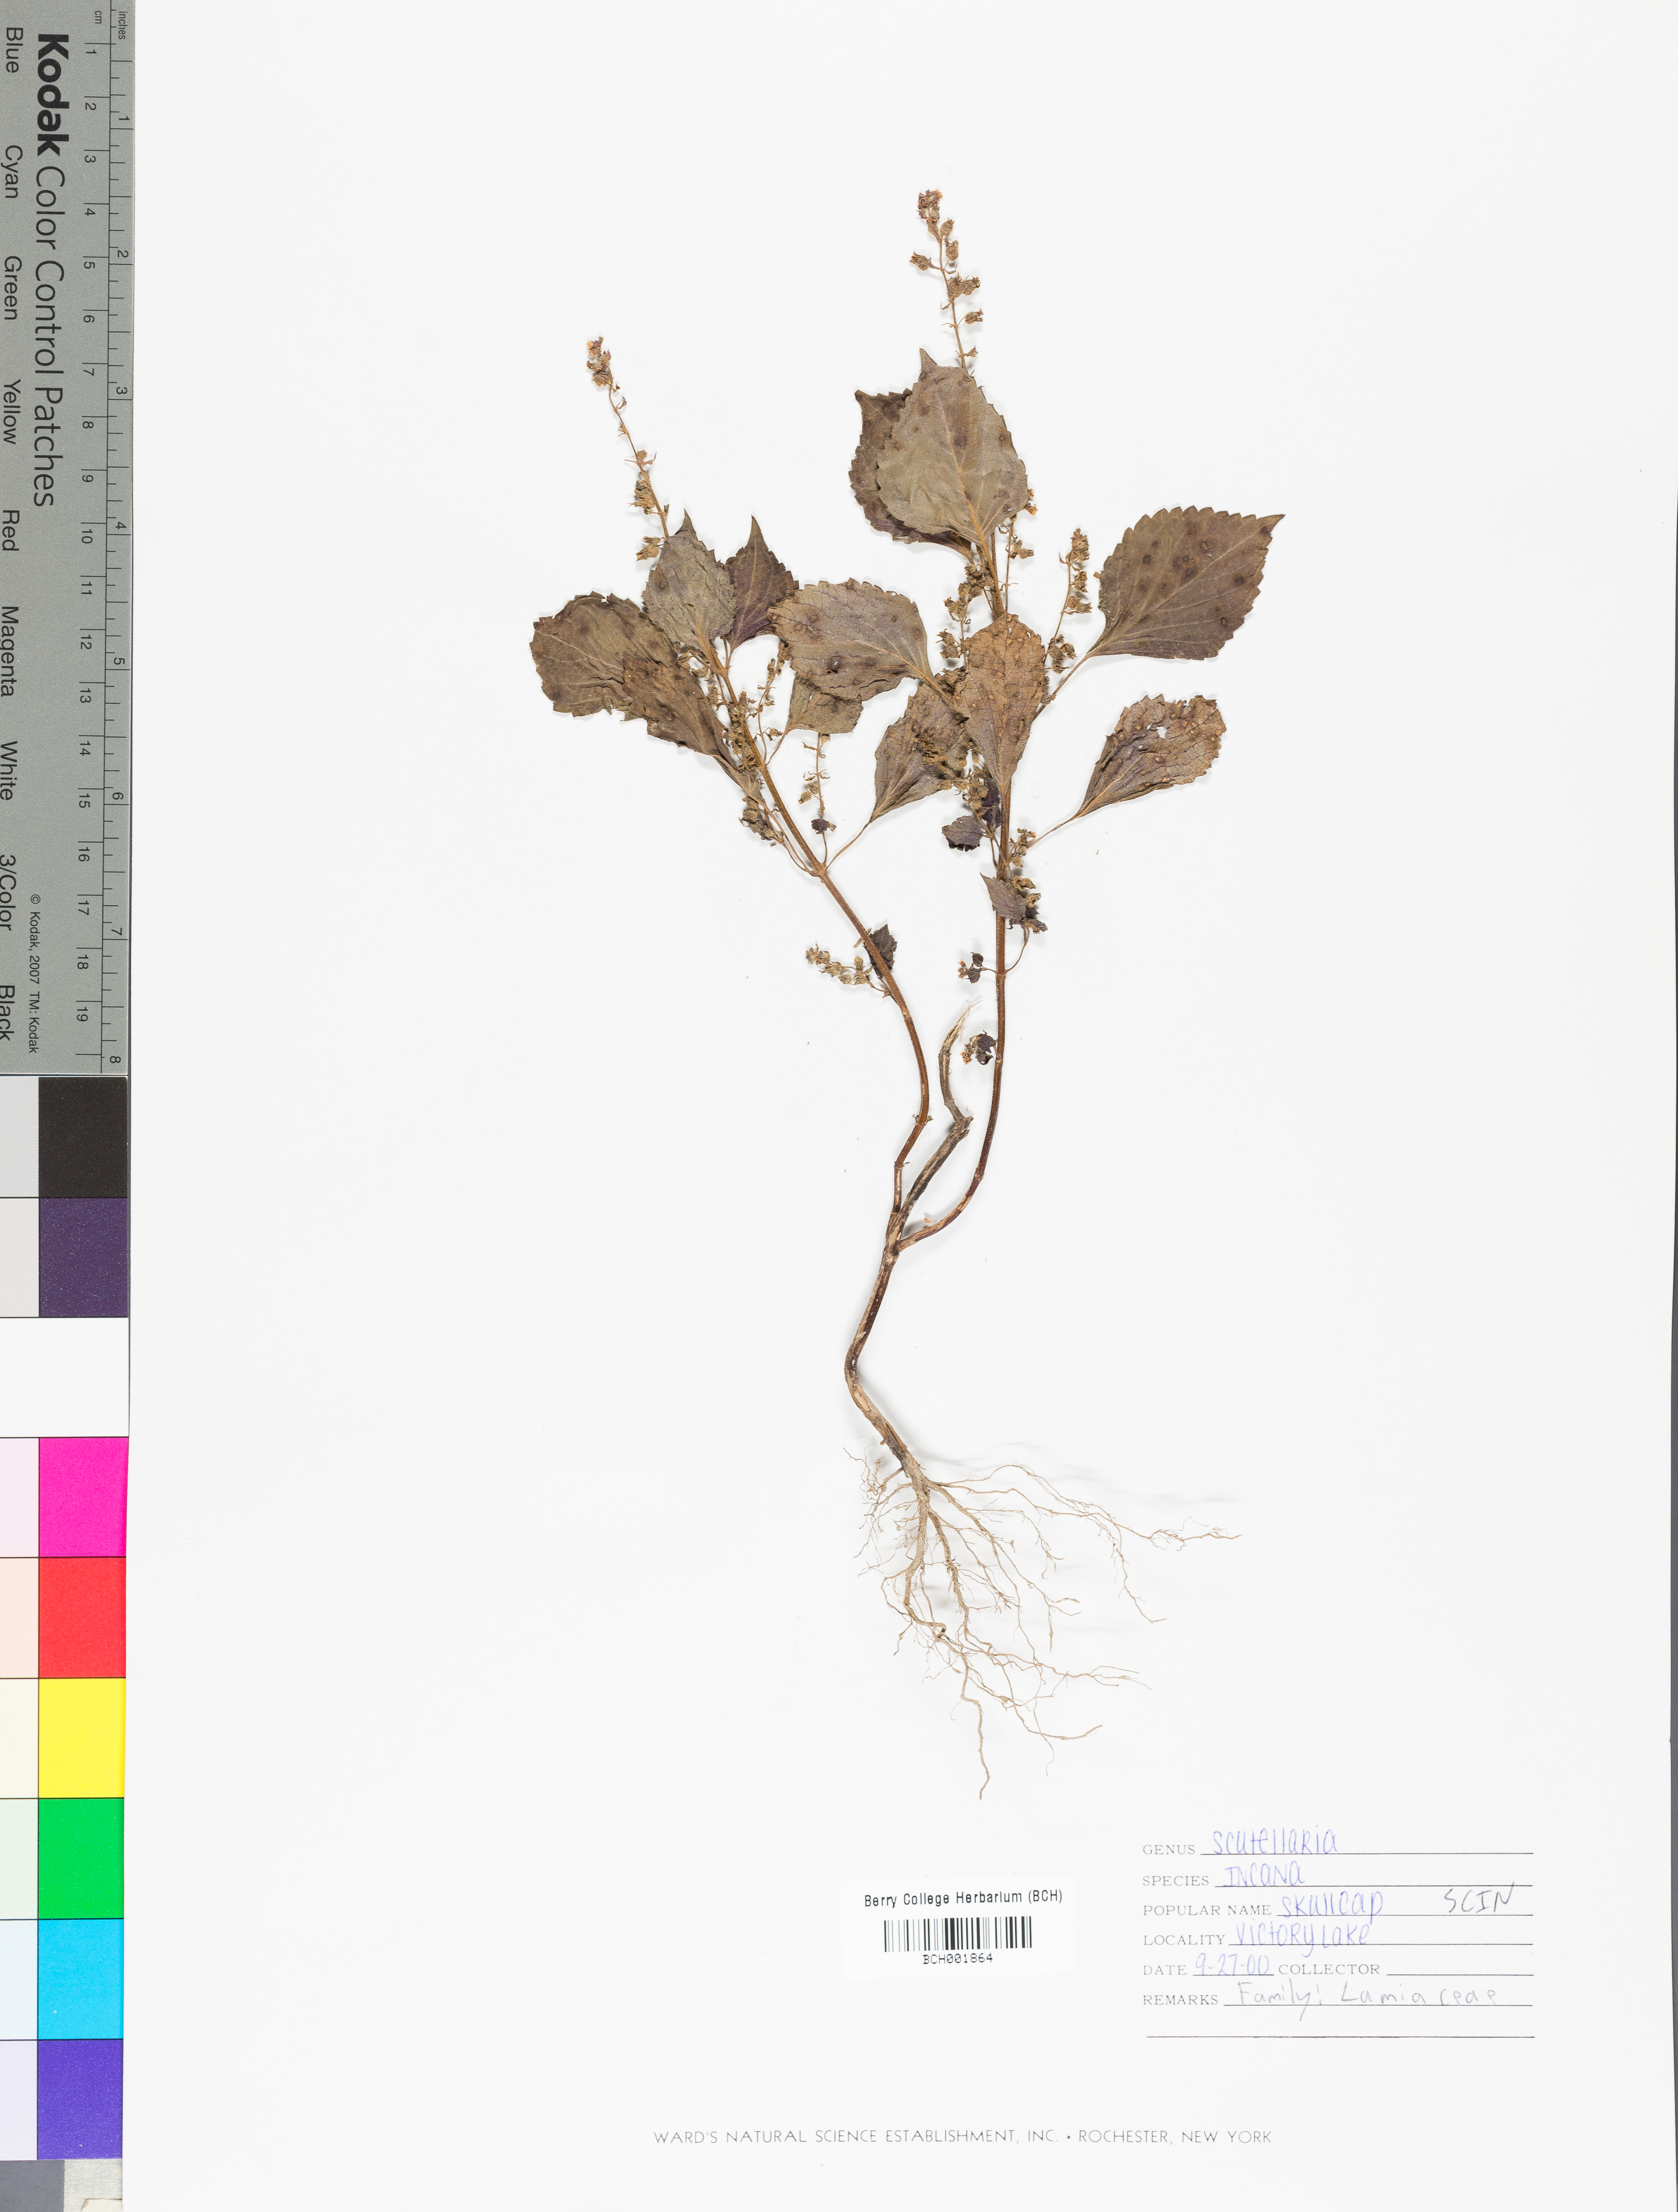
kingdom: Plantae
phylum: Tracheophyta
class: Magnoliopsida
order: Lamiales
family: Lamiaceae
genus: Scutellaria
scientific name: Scutellaria incana
